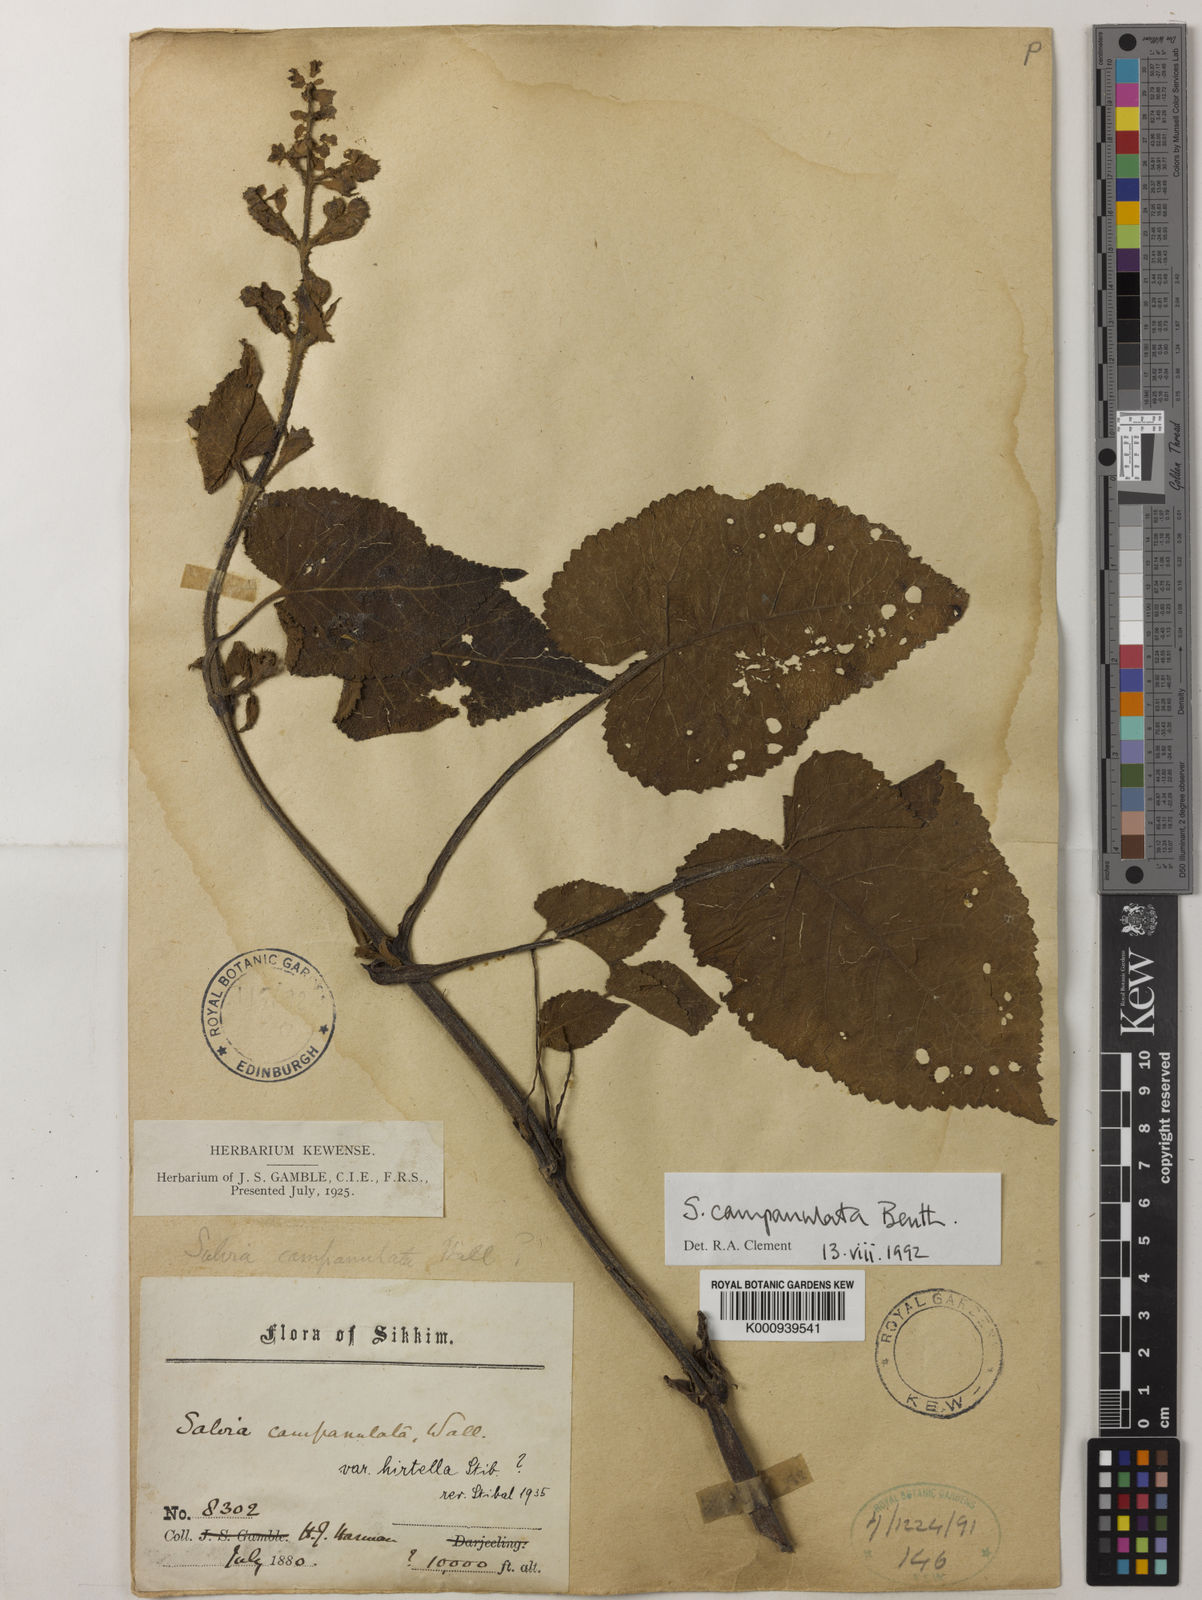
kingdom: Plantae
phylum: Tracheophyta
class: Magnoliopsida
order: Lamiales
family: Lamiaceae
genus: Salvia
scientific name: Salvia campanulata
